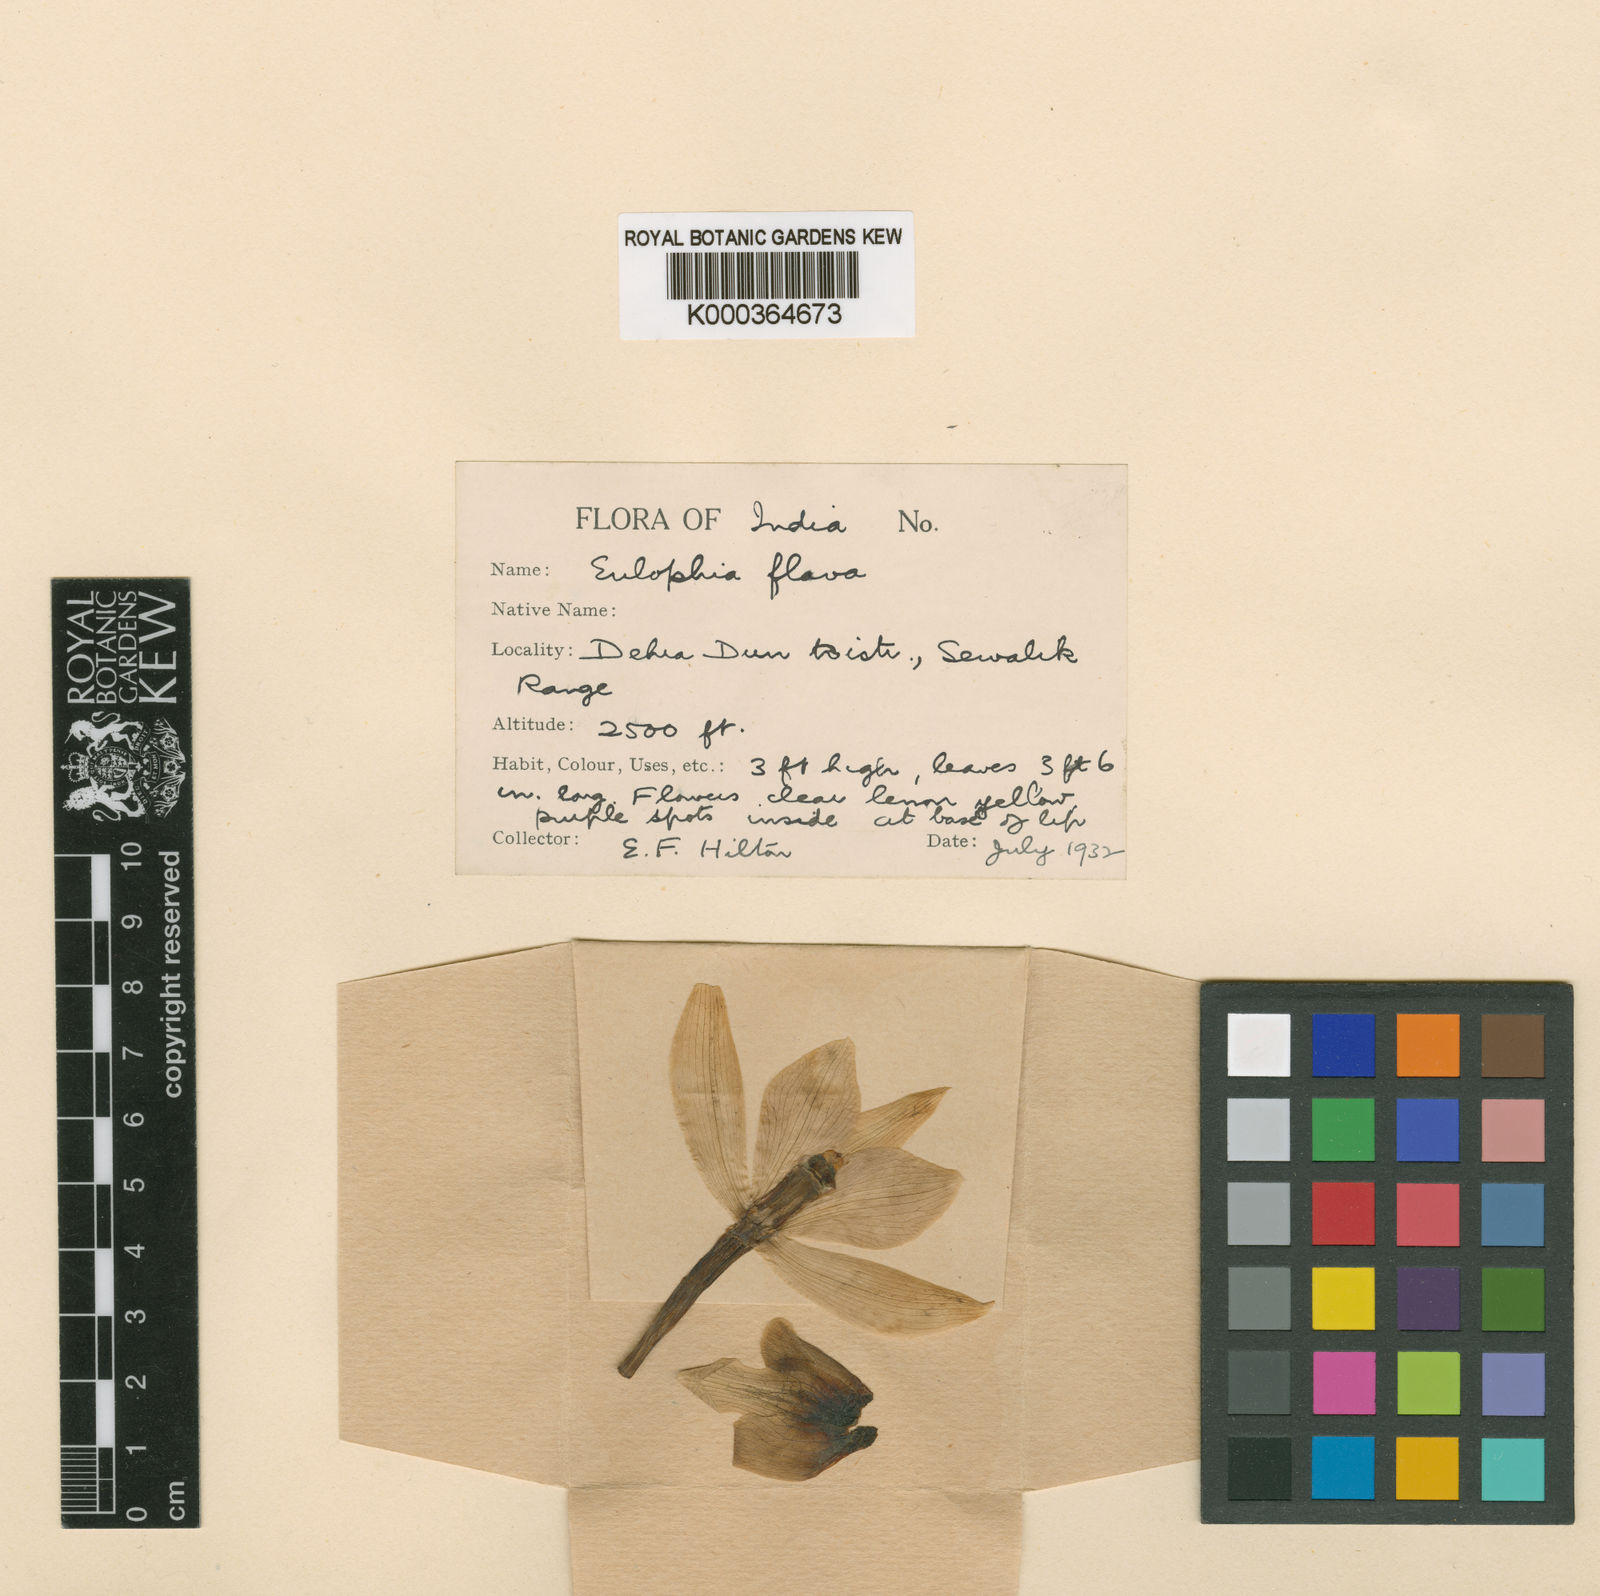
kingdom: Plantae
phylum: Tracheophyta
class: Liliopsida
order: Asparagales
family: Orchidaceae
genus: Eulophia
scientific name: Eulophia flava
